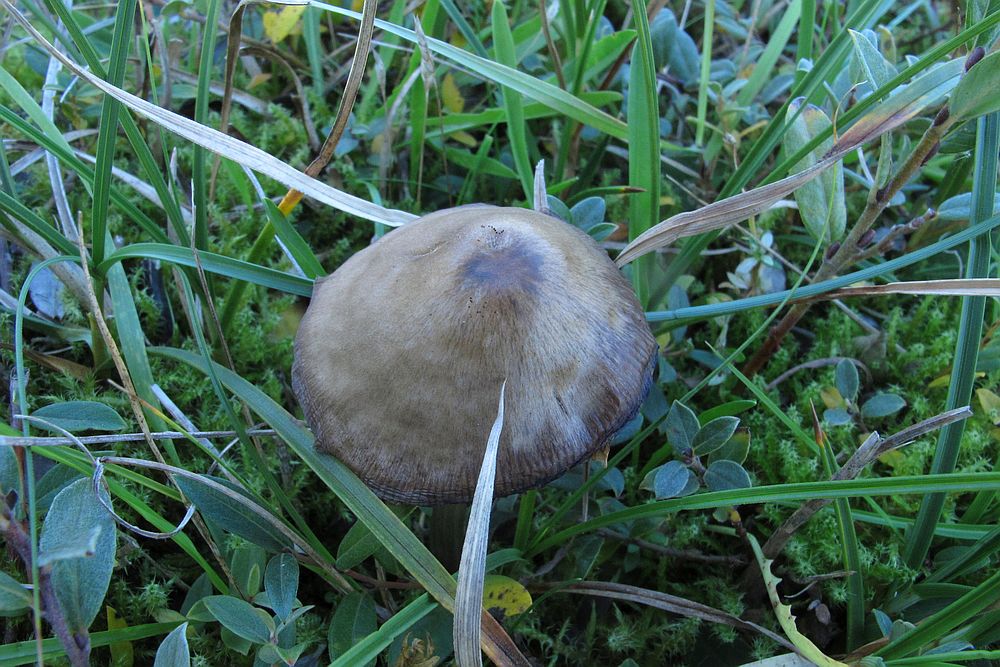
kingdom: Fungi
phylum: Basidiomycota
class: Agaricomycetes
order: Agaricales
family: Entolomataceae
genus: Entoloma
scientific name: Entoloma conferendum
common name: stjernesporet rødblad
